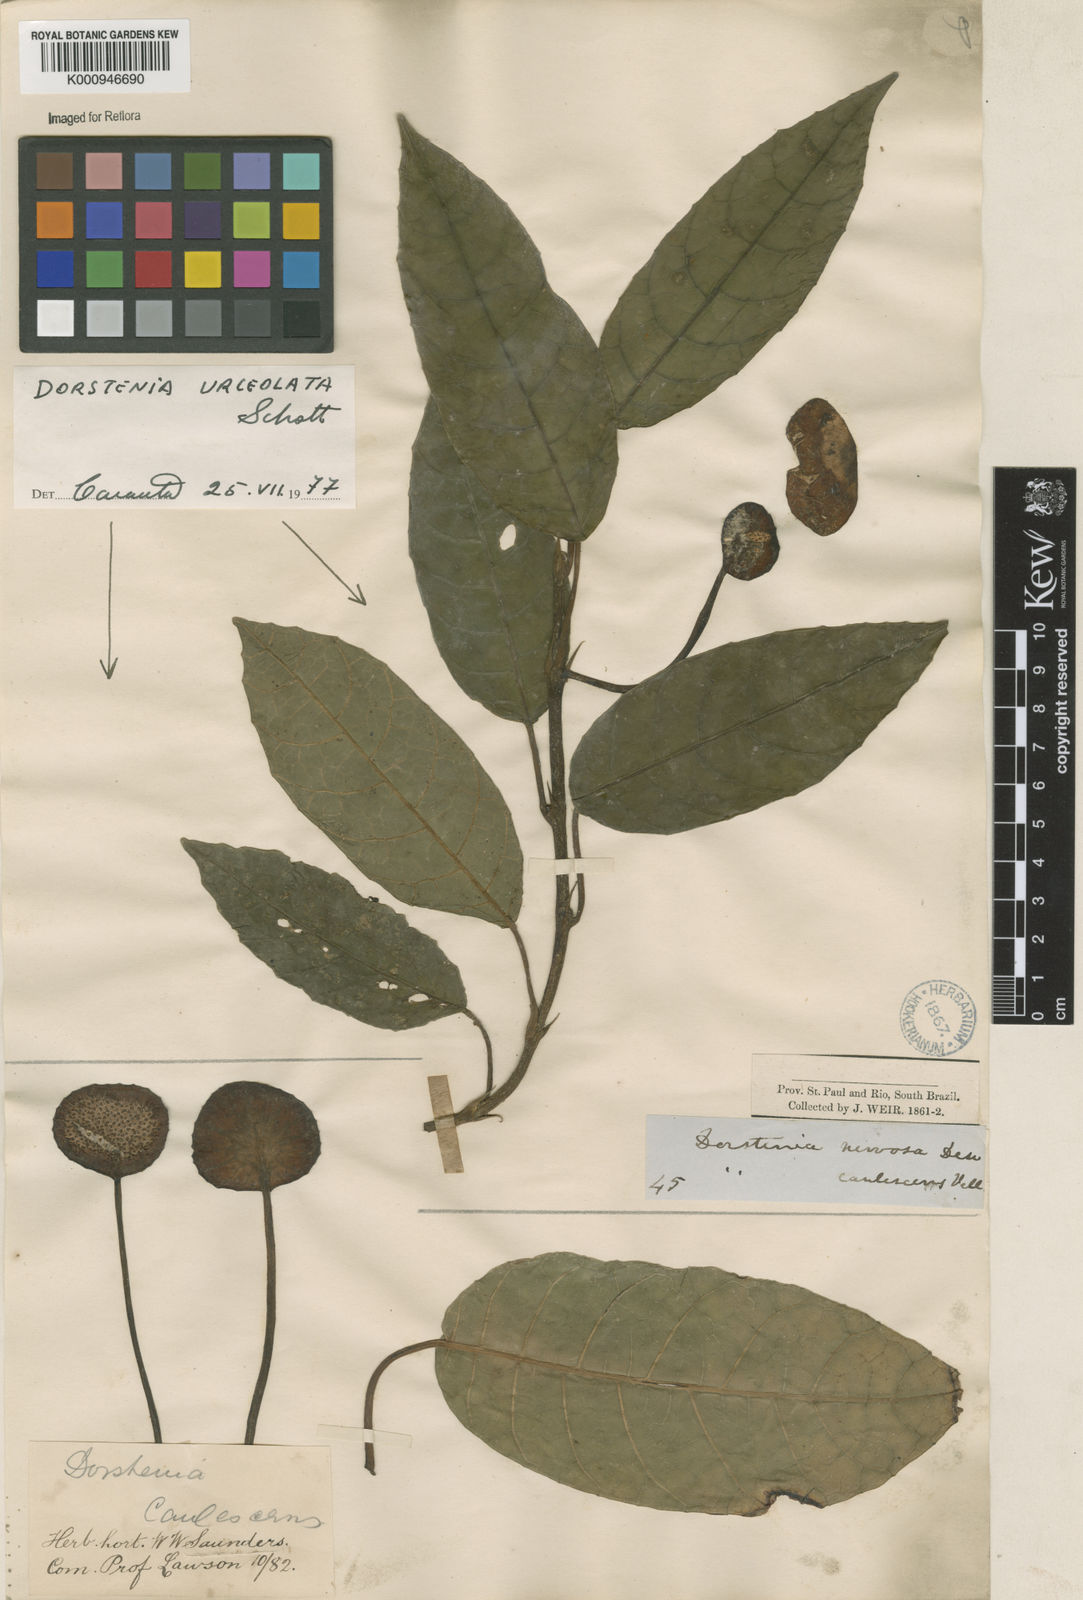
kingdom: Plantae
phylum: Tracheophyta
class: Magnoliopsida
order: Rosales
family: Moraceae
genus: Dorstenia
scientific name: Dorstenia urceolata
